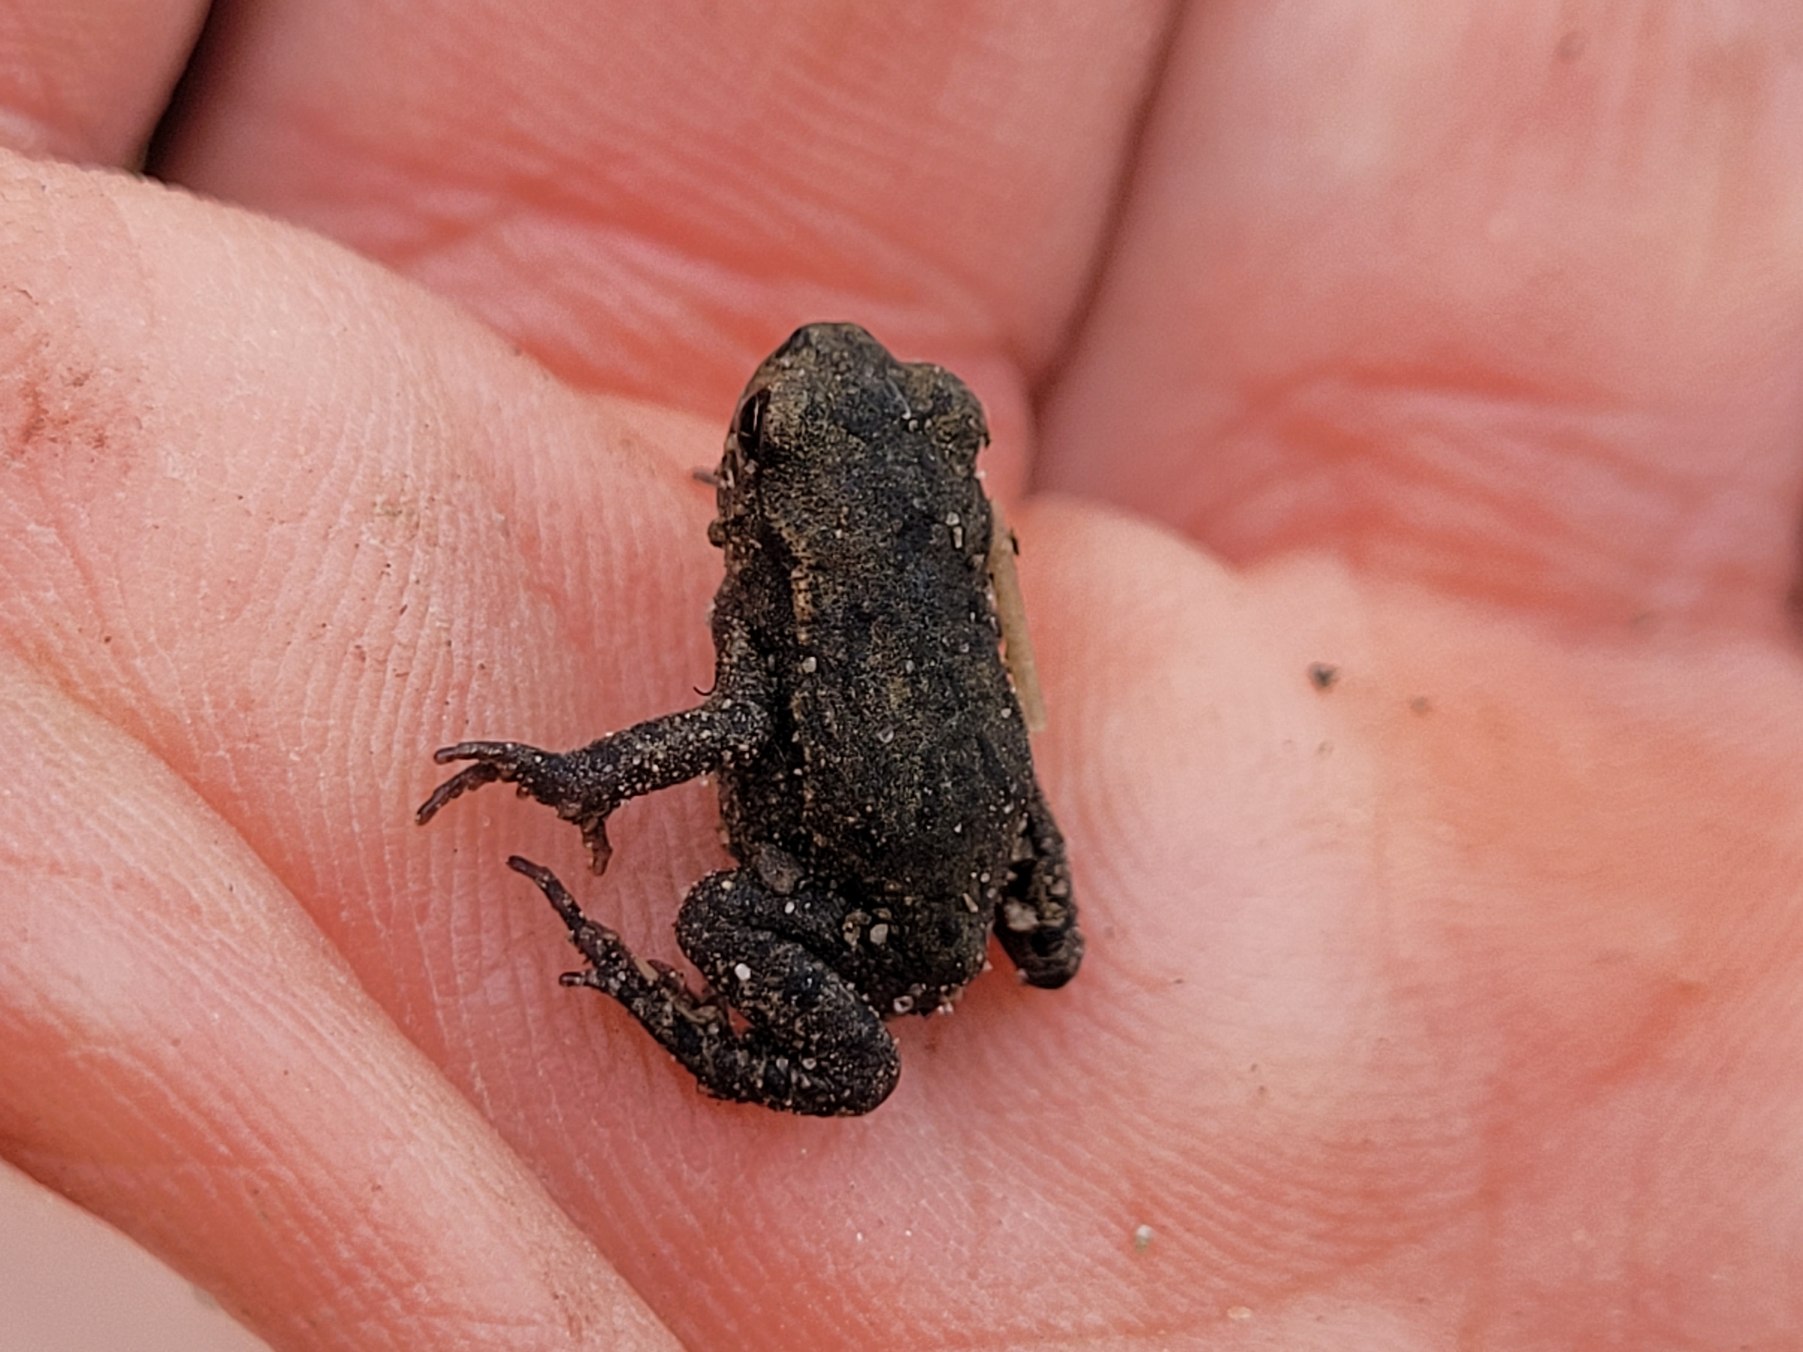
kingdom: Animalia
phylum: Chordata
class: Amphibia
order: Anura
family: Bufonidae
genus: Bufo
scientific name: Bufo bufo
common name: Skrubtudse
